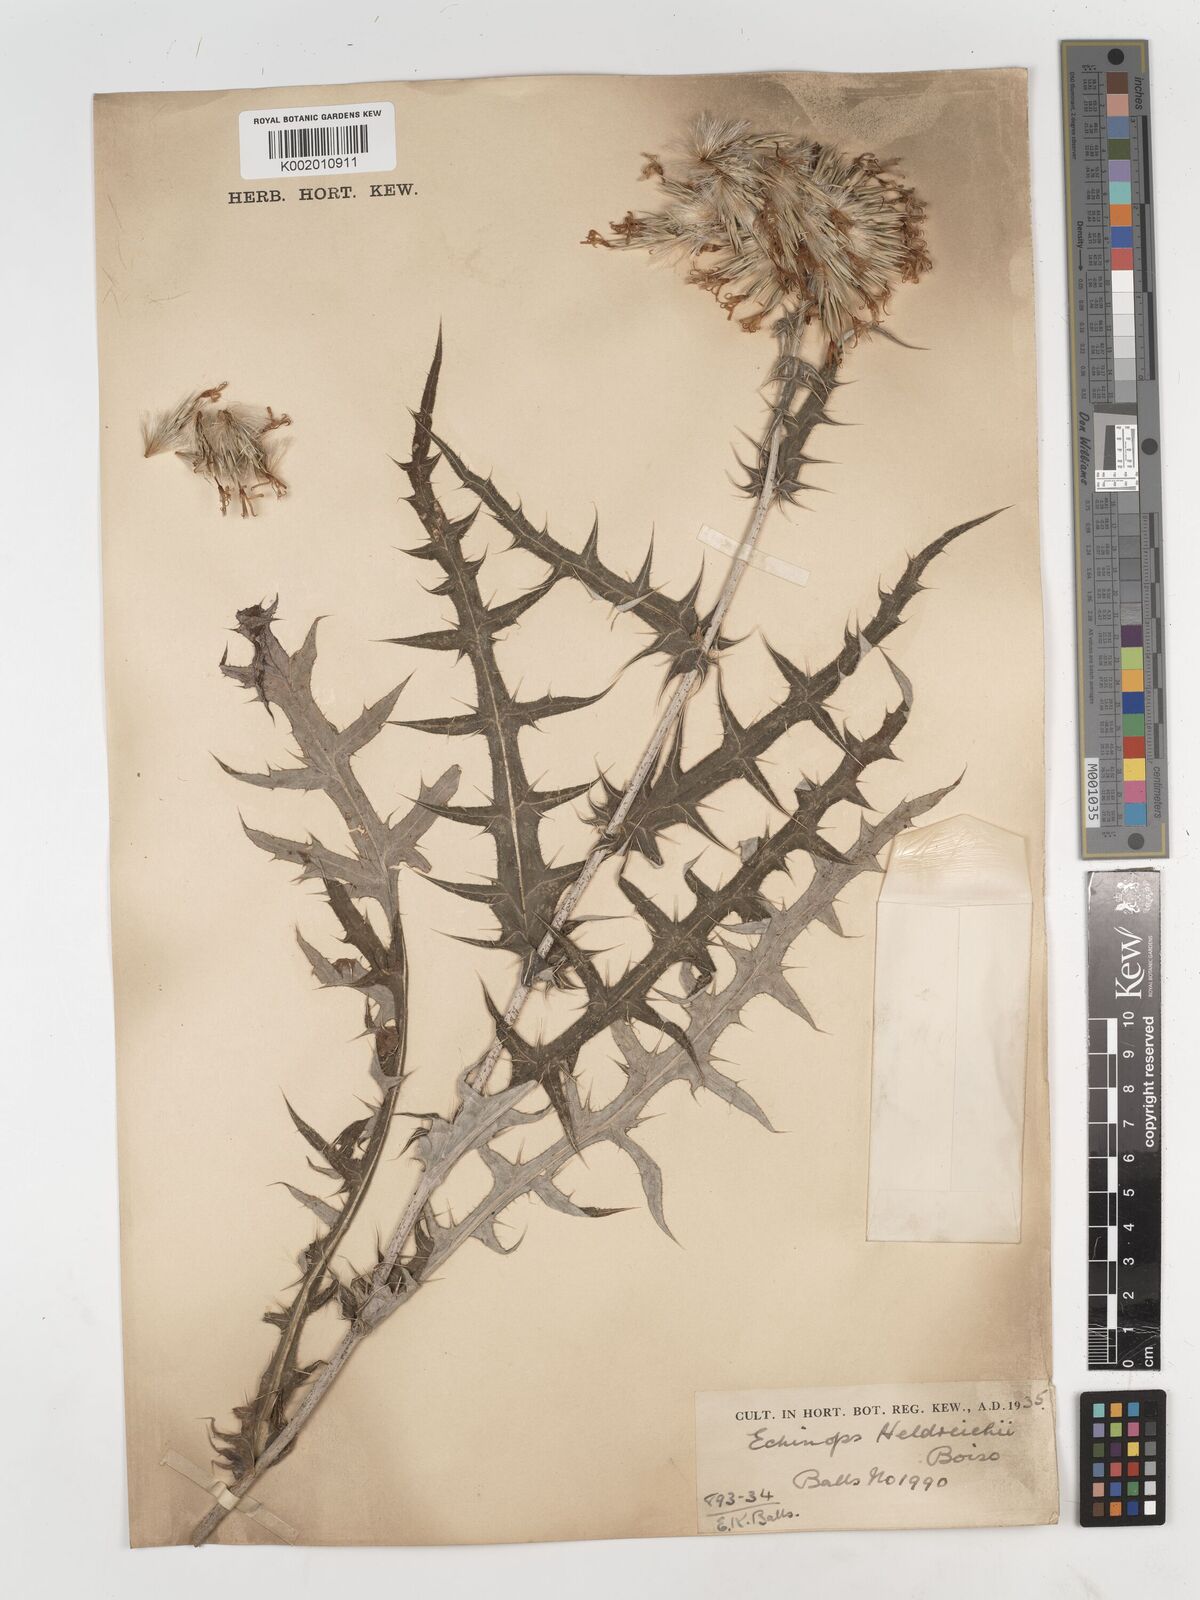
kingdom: Plantae
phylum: Tracheophyta
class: Magnoliopsida
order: Asterales
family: Asteraceae
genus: Echinops
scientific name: Echinops pungens
